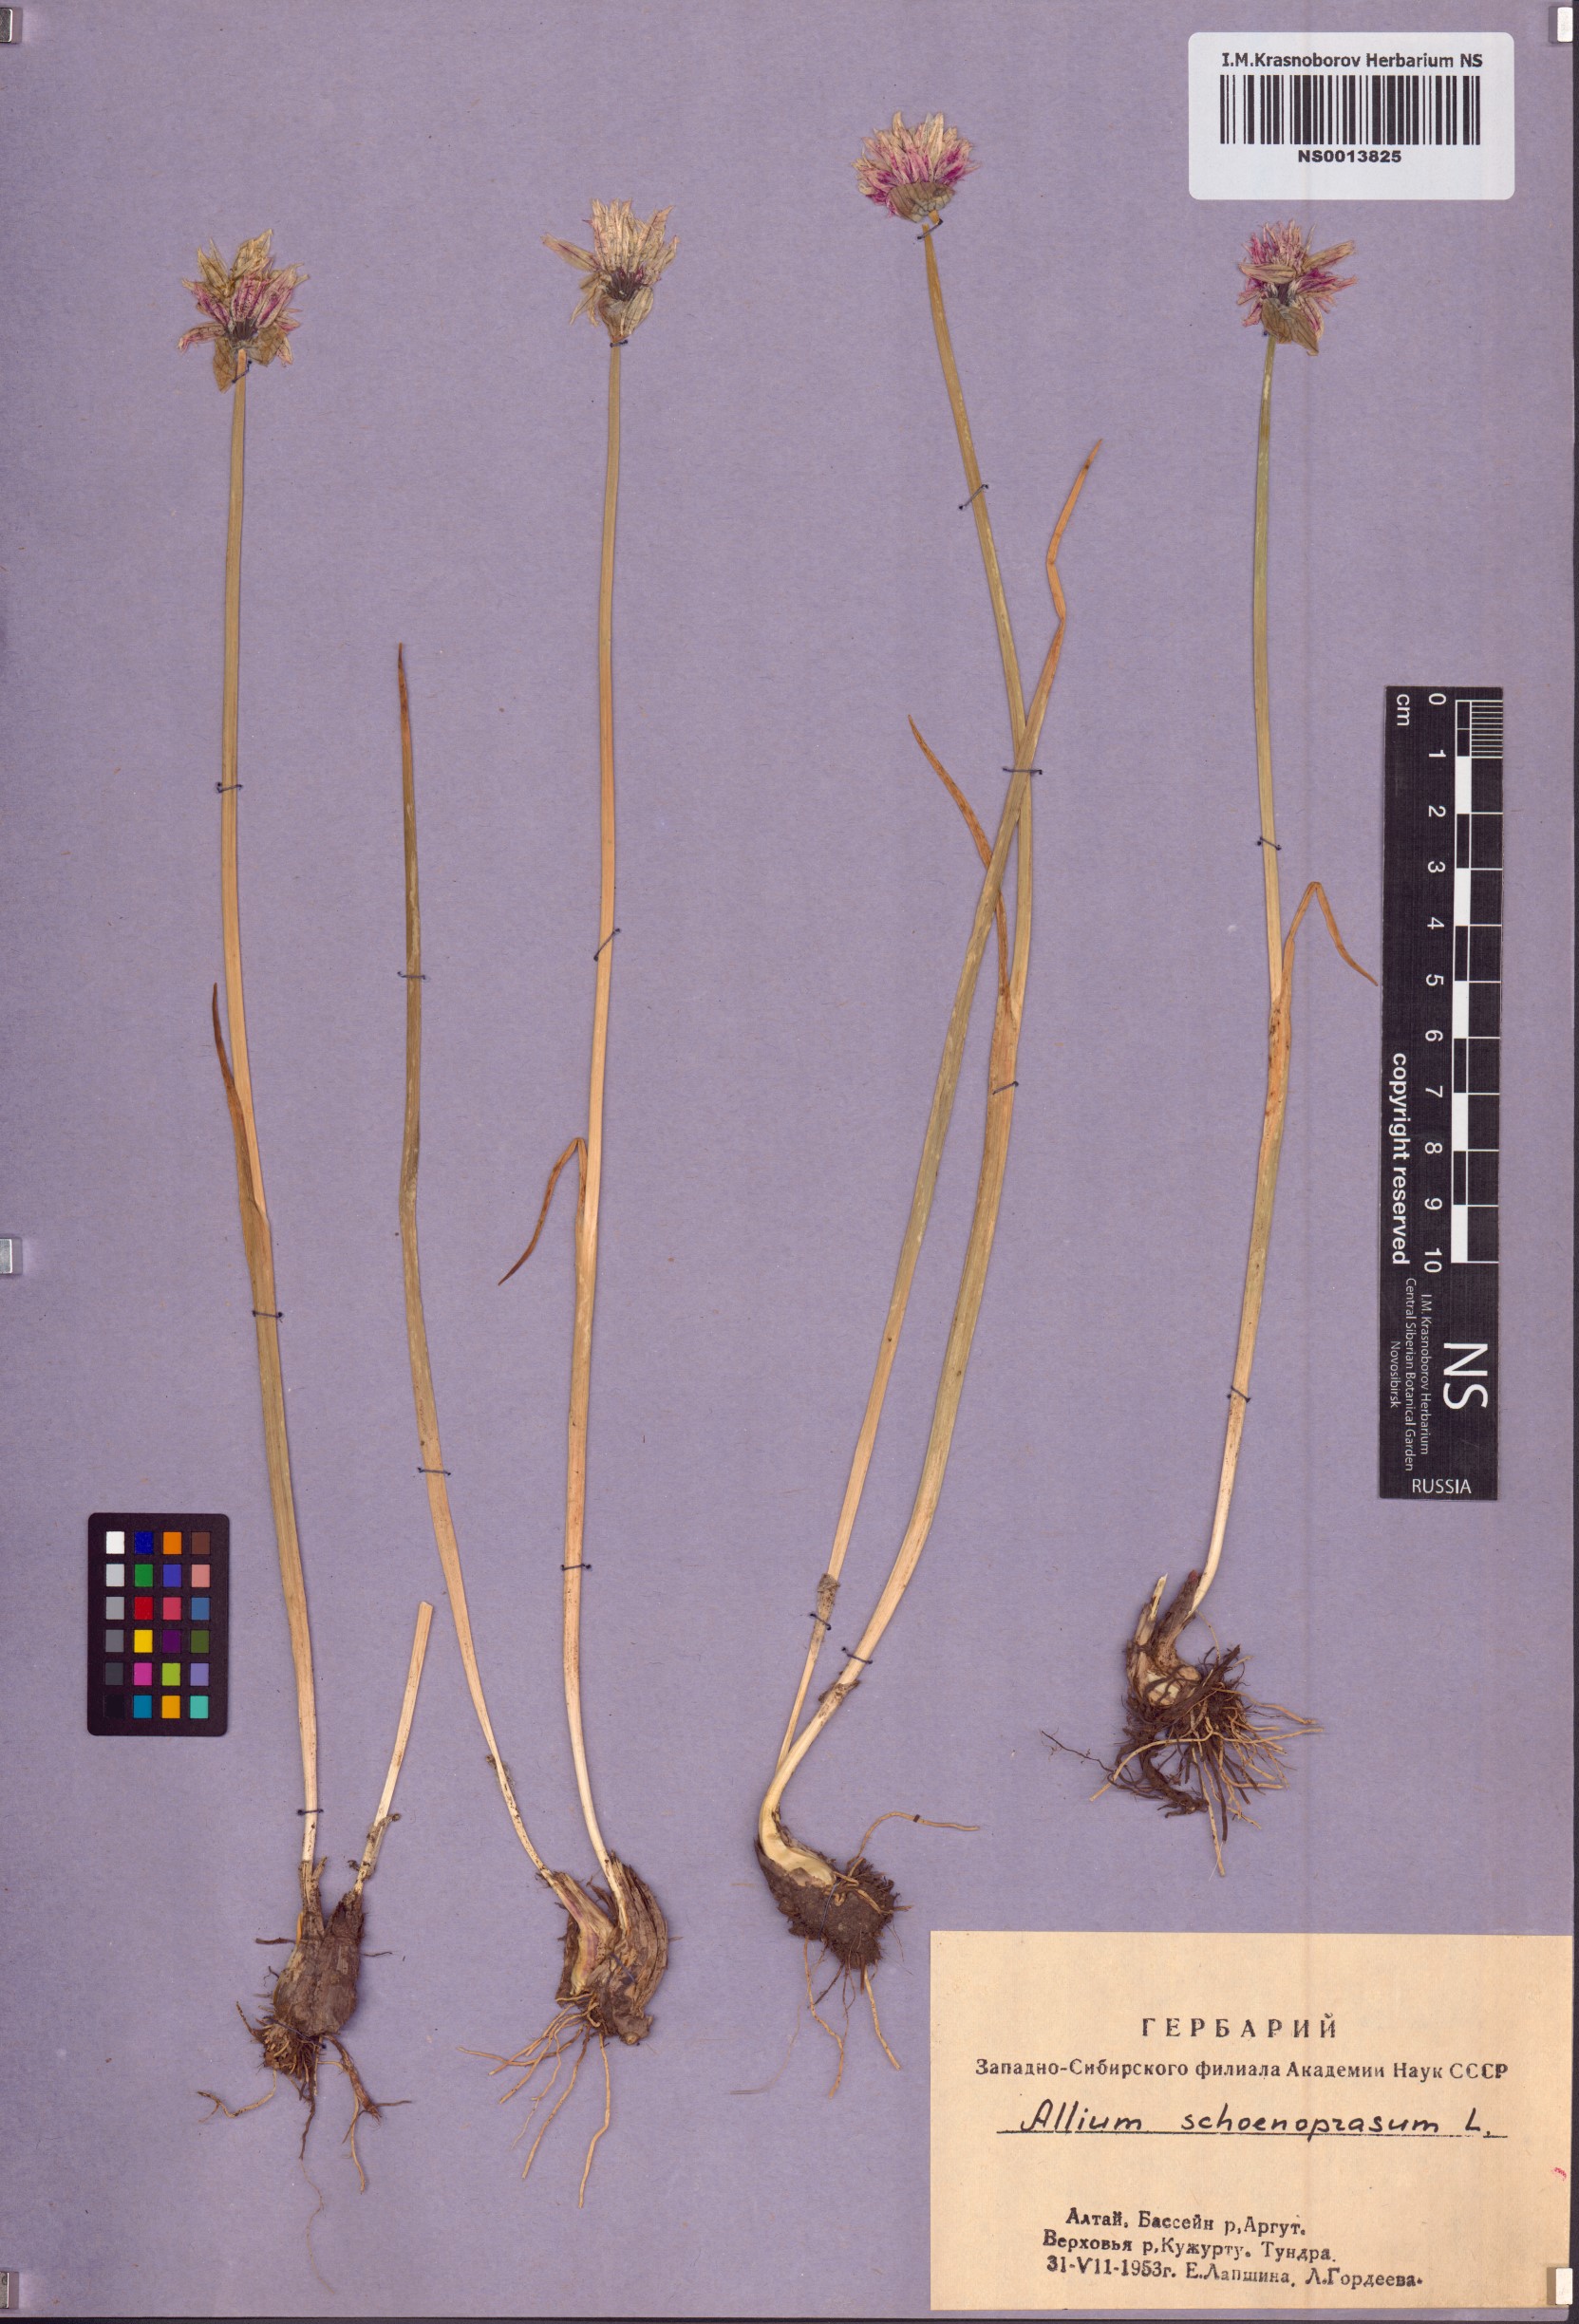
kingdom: Plantae
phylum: Tracheophyta
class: Liliopsida
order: Asparagales
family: Amaryllidaceae
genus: Allium
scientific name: Allium schoenoprasum
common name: Chives
